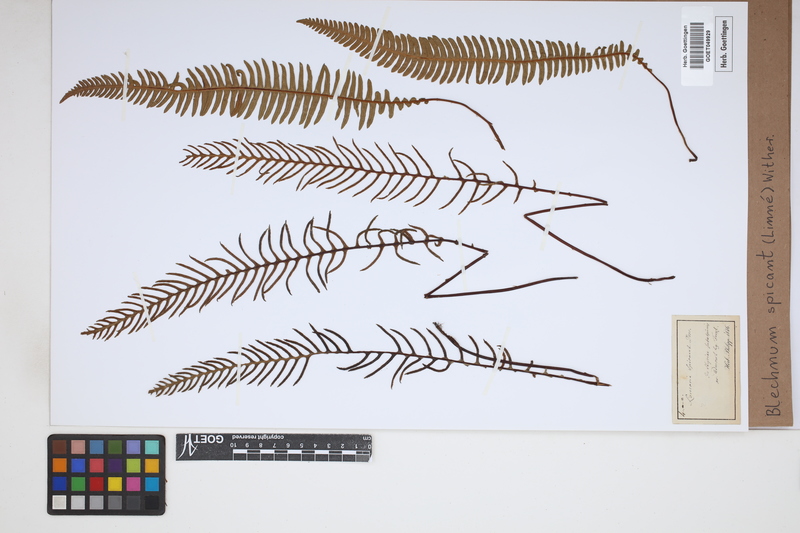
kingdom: Plantae
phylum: Tracheophyta
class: Polypodiopsida
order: Polypodiales
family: Blechnaceae
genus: Struthiopteris
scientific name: Struthiopteris spicant
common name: Deer fern
